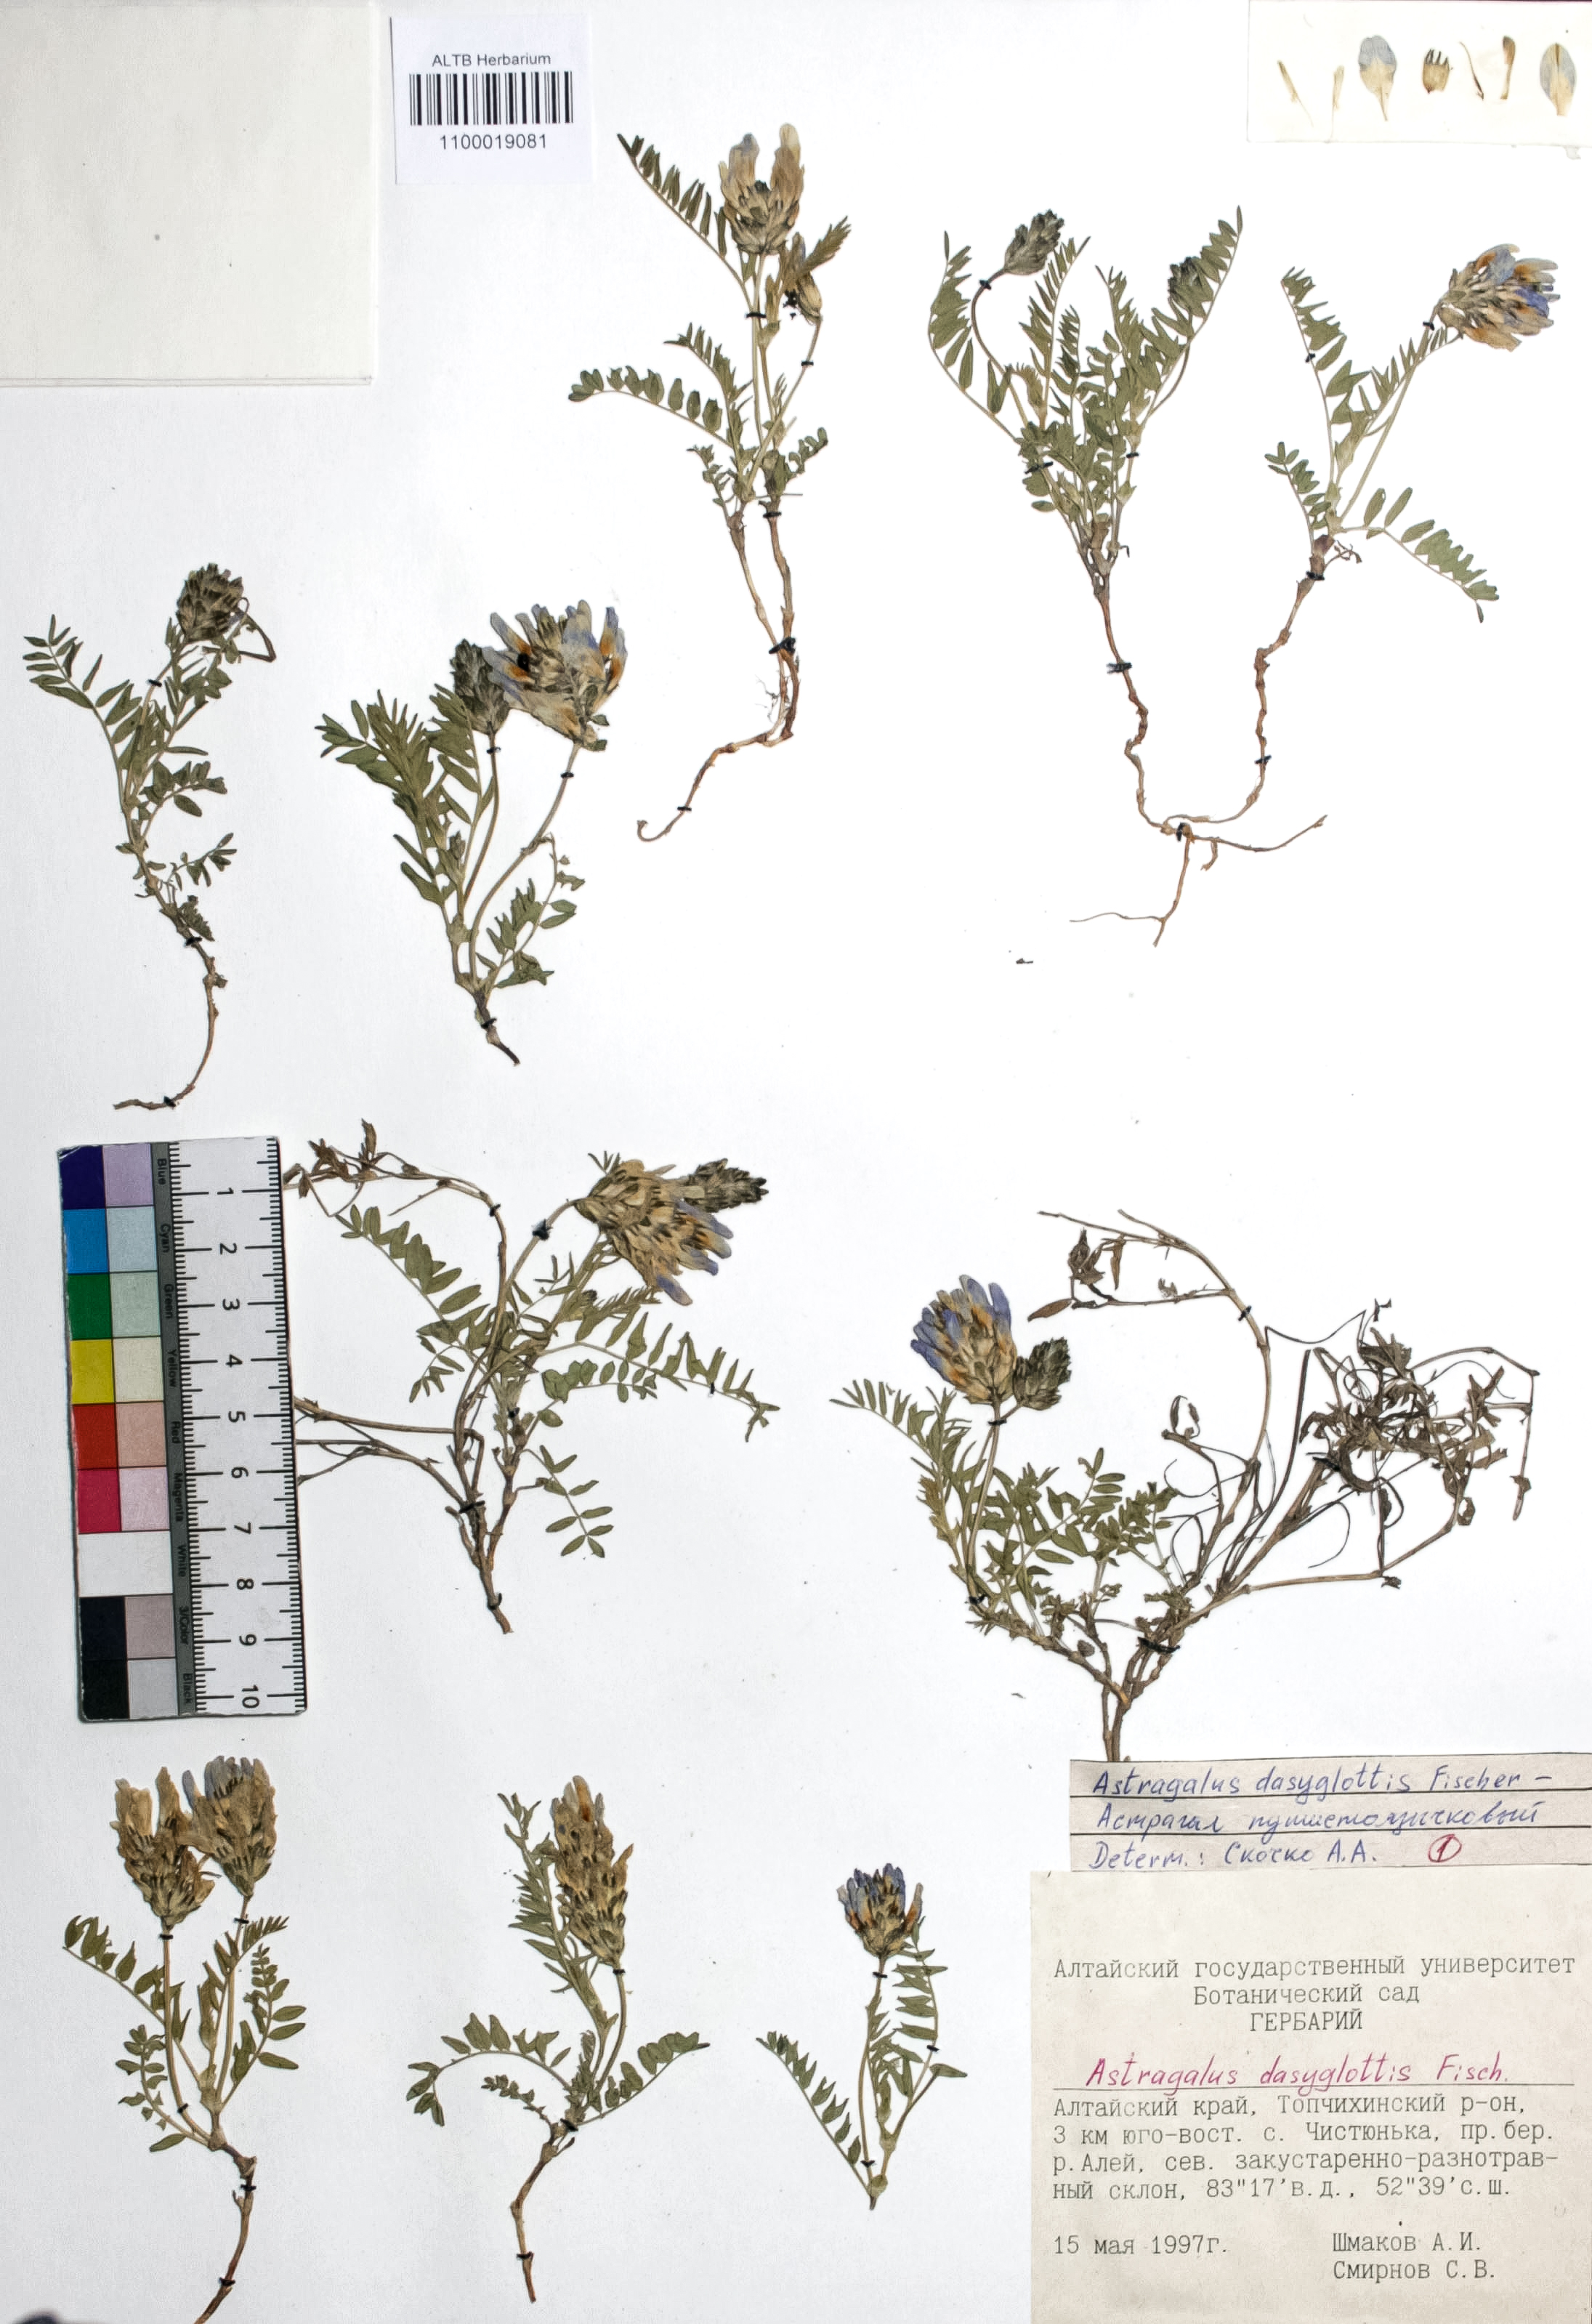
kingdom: Plantae
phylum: Tracheophyta
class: Magnoliopsida
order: Fabales
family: Fabaceae
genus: Astragalus
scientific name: Astragalus agrestis
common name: Field milk-vetch
